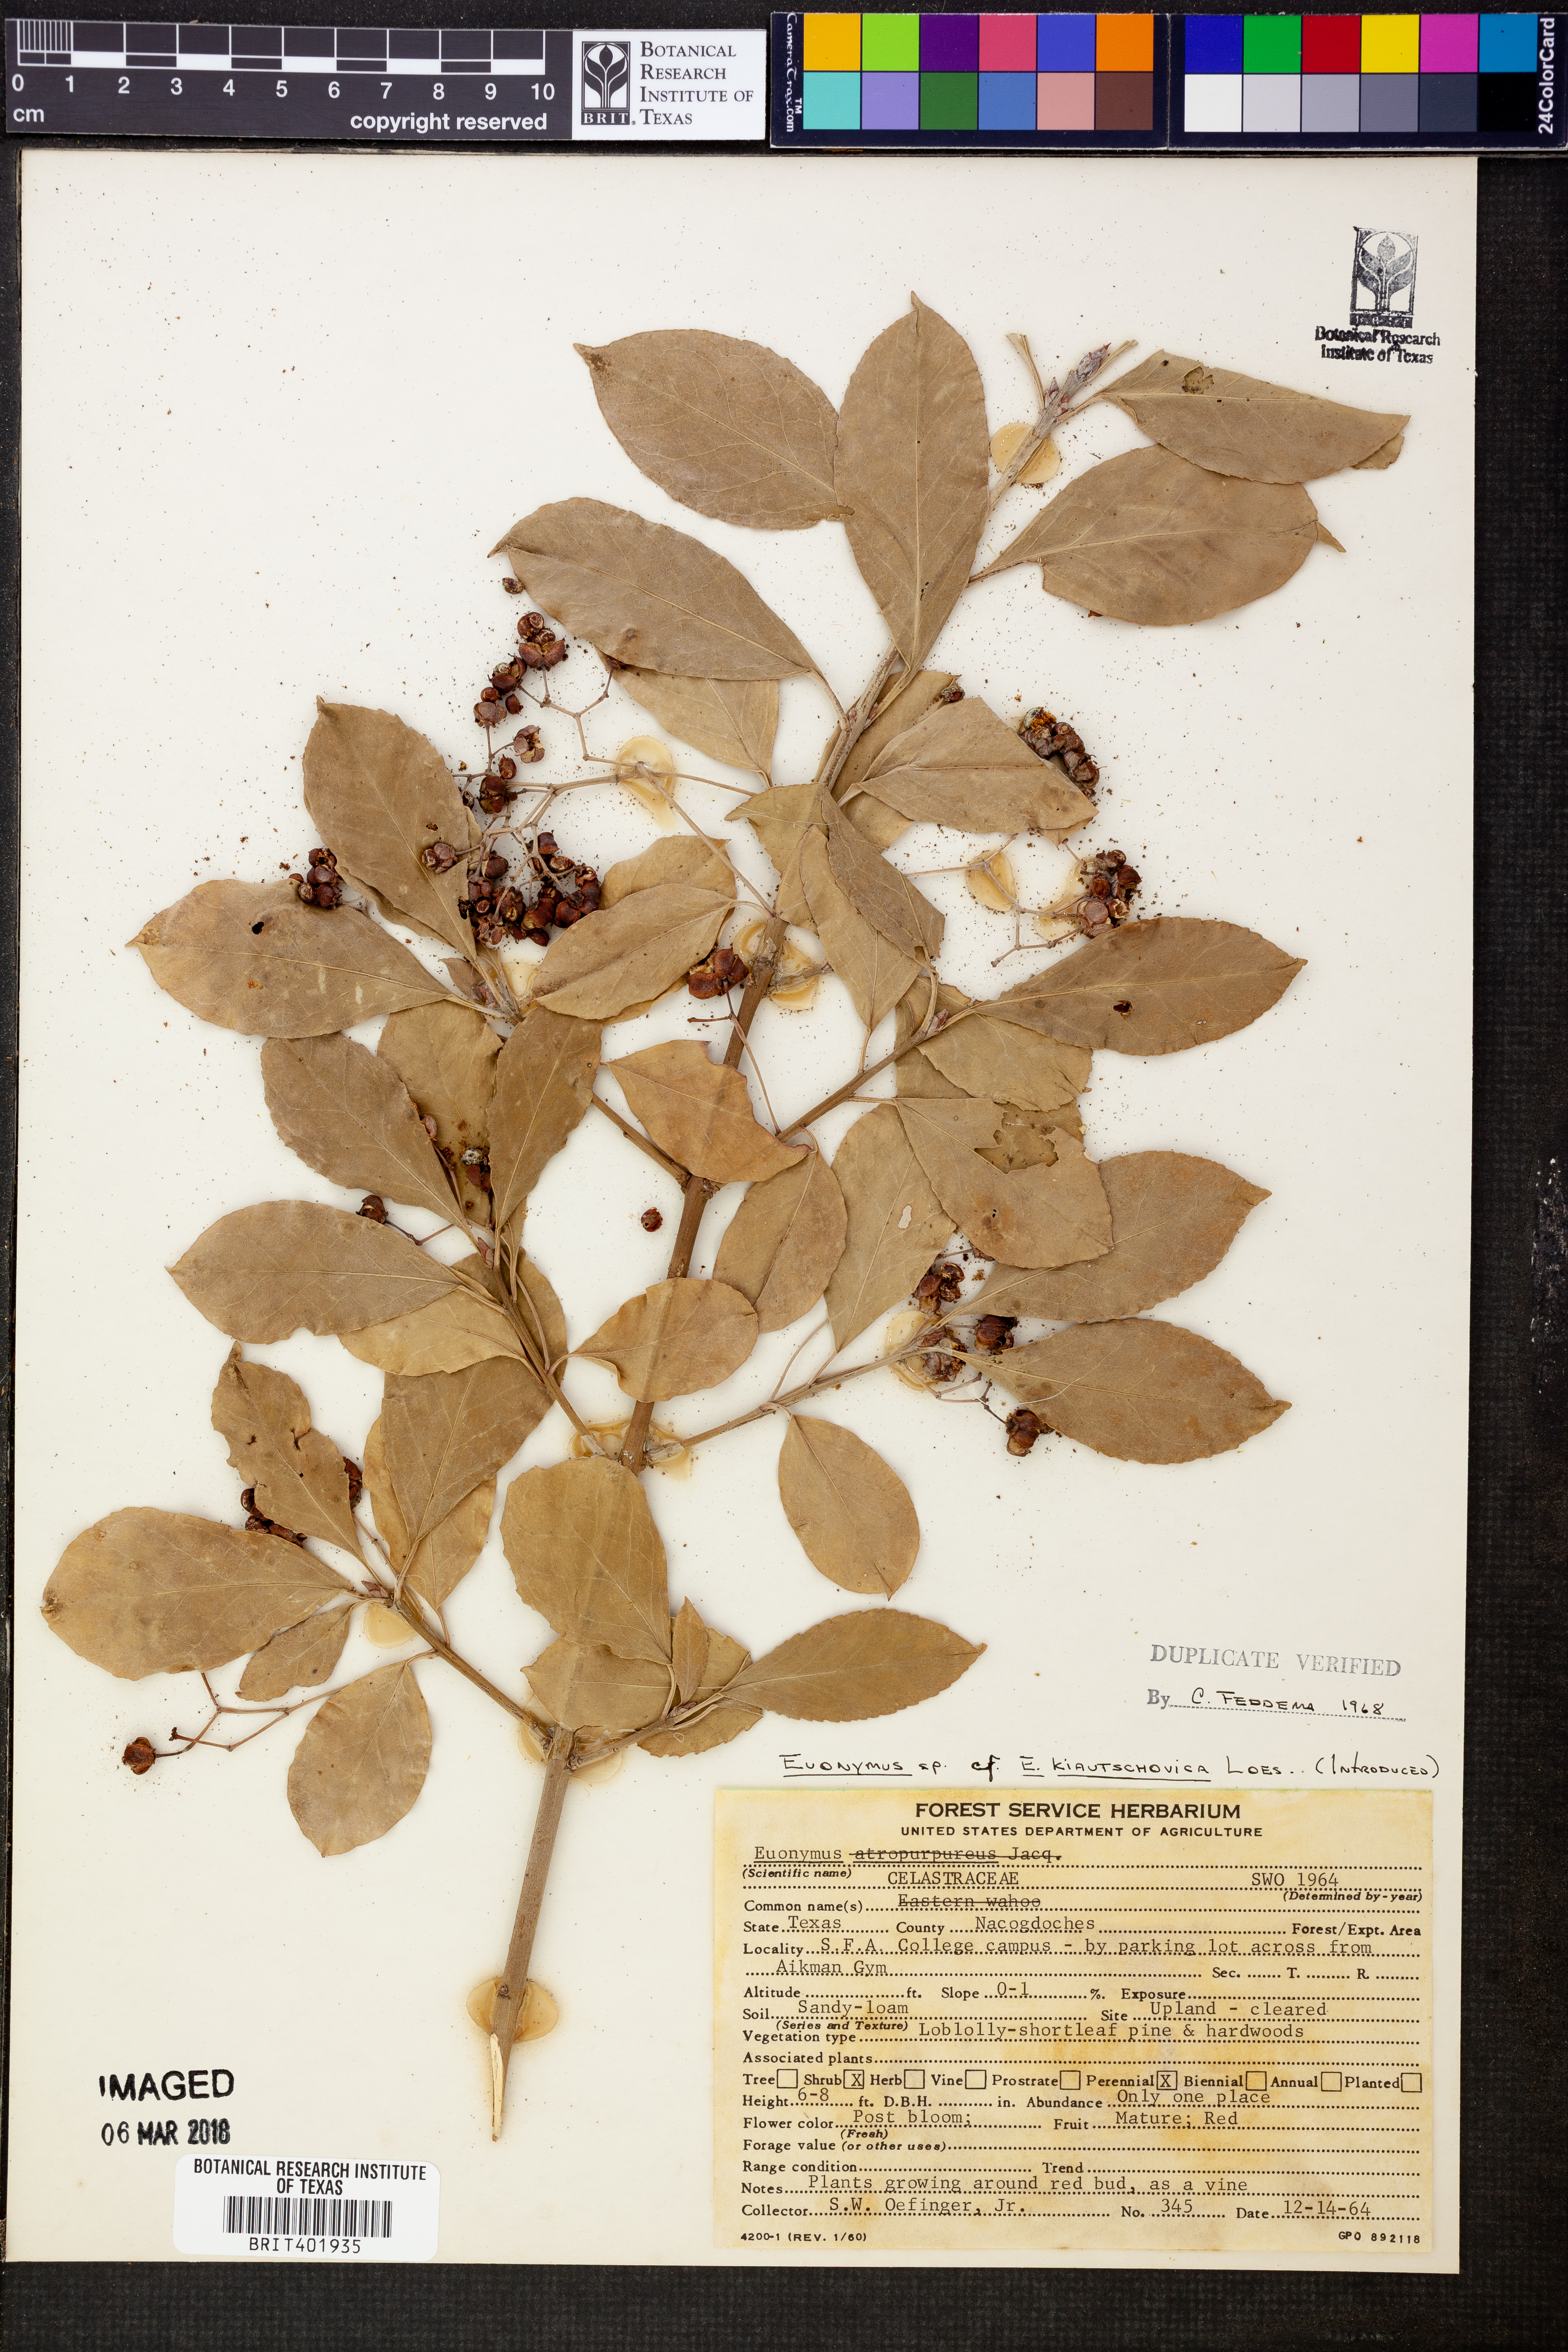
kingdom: Plantae
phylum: Tracheophyta
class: Magnoliopsida
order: Celastrales
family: Celastraceae
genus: Euonymus
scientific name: Euonymus fortunei
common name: Climbing euonymus
